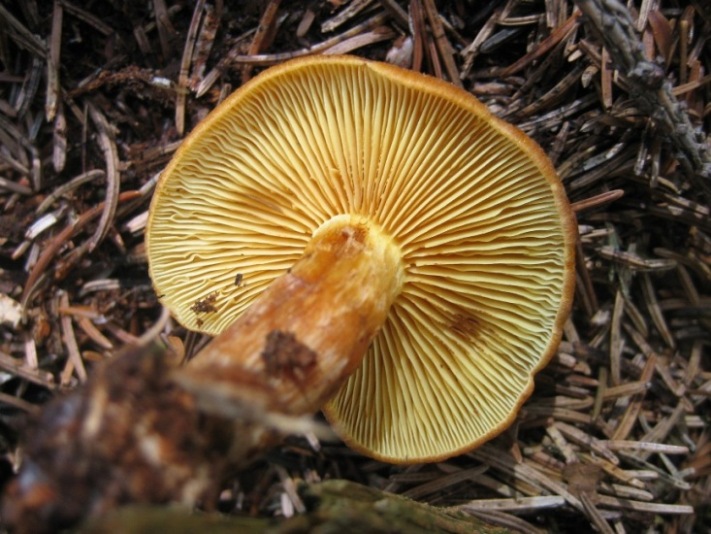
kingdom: Fungi
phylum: Basidiomycota
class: Agaricomycetes
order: Agaricales
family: Hymenogastraceae
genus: Gymnopilus
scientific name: Gymnopilus penetrans
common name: plettet flammehat
